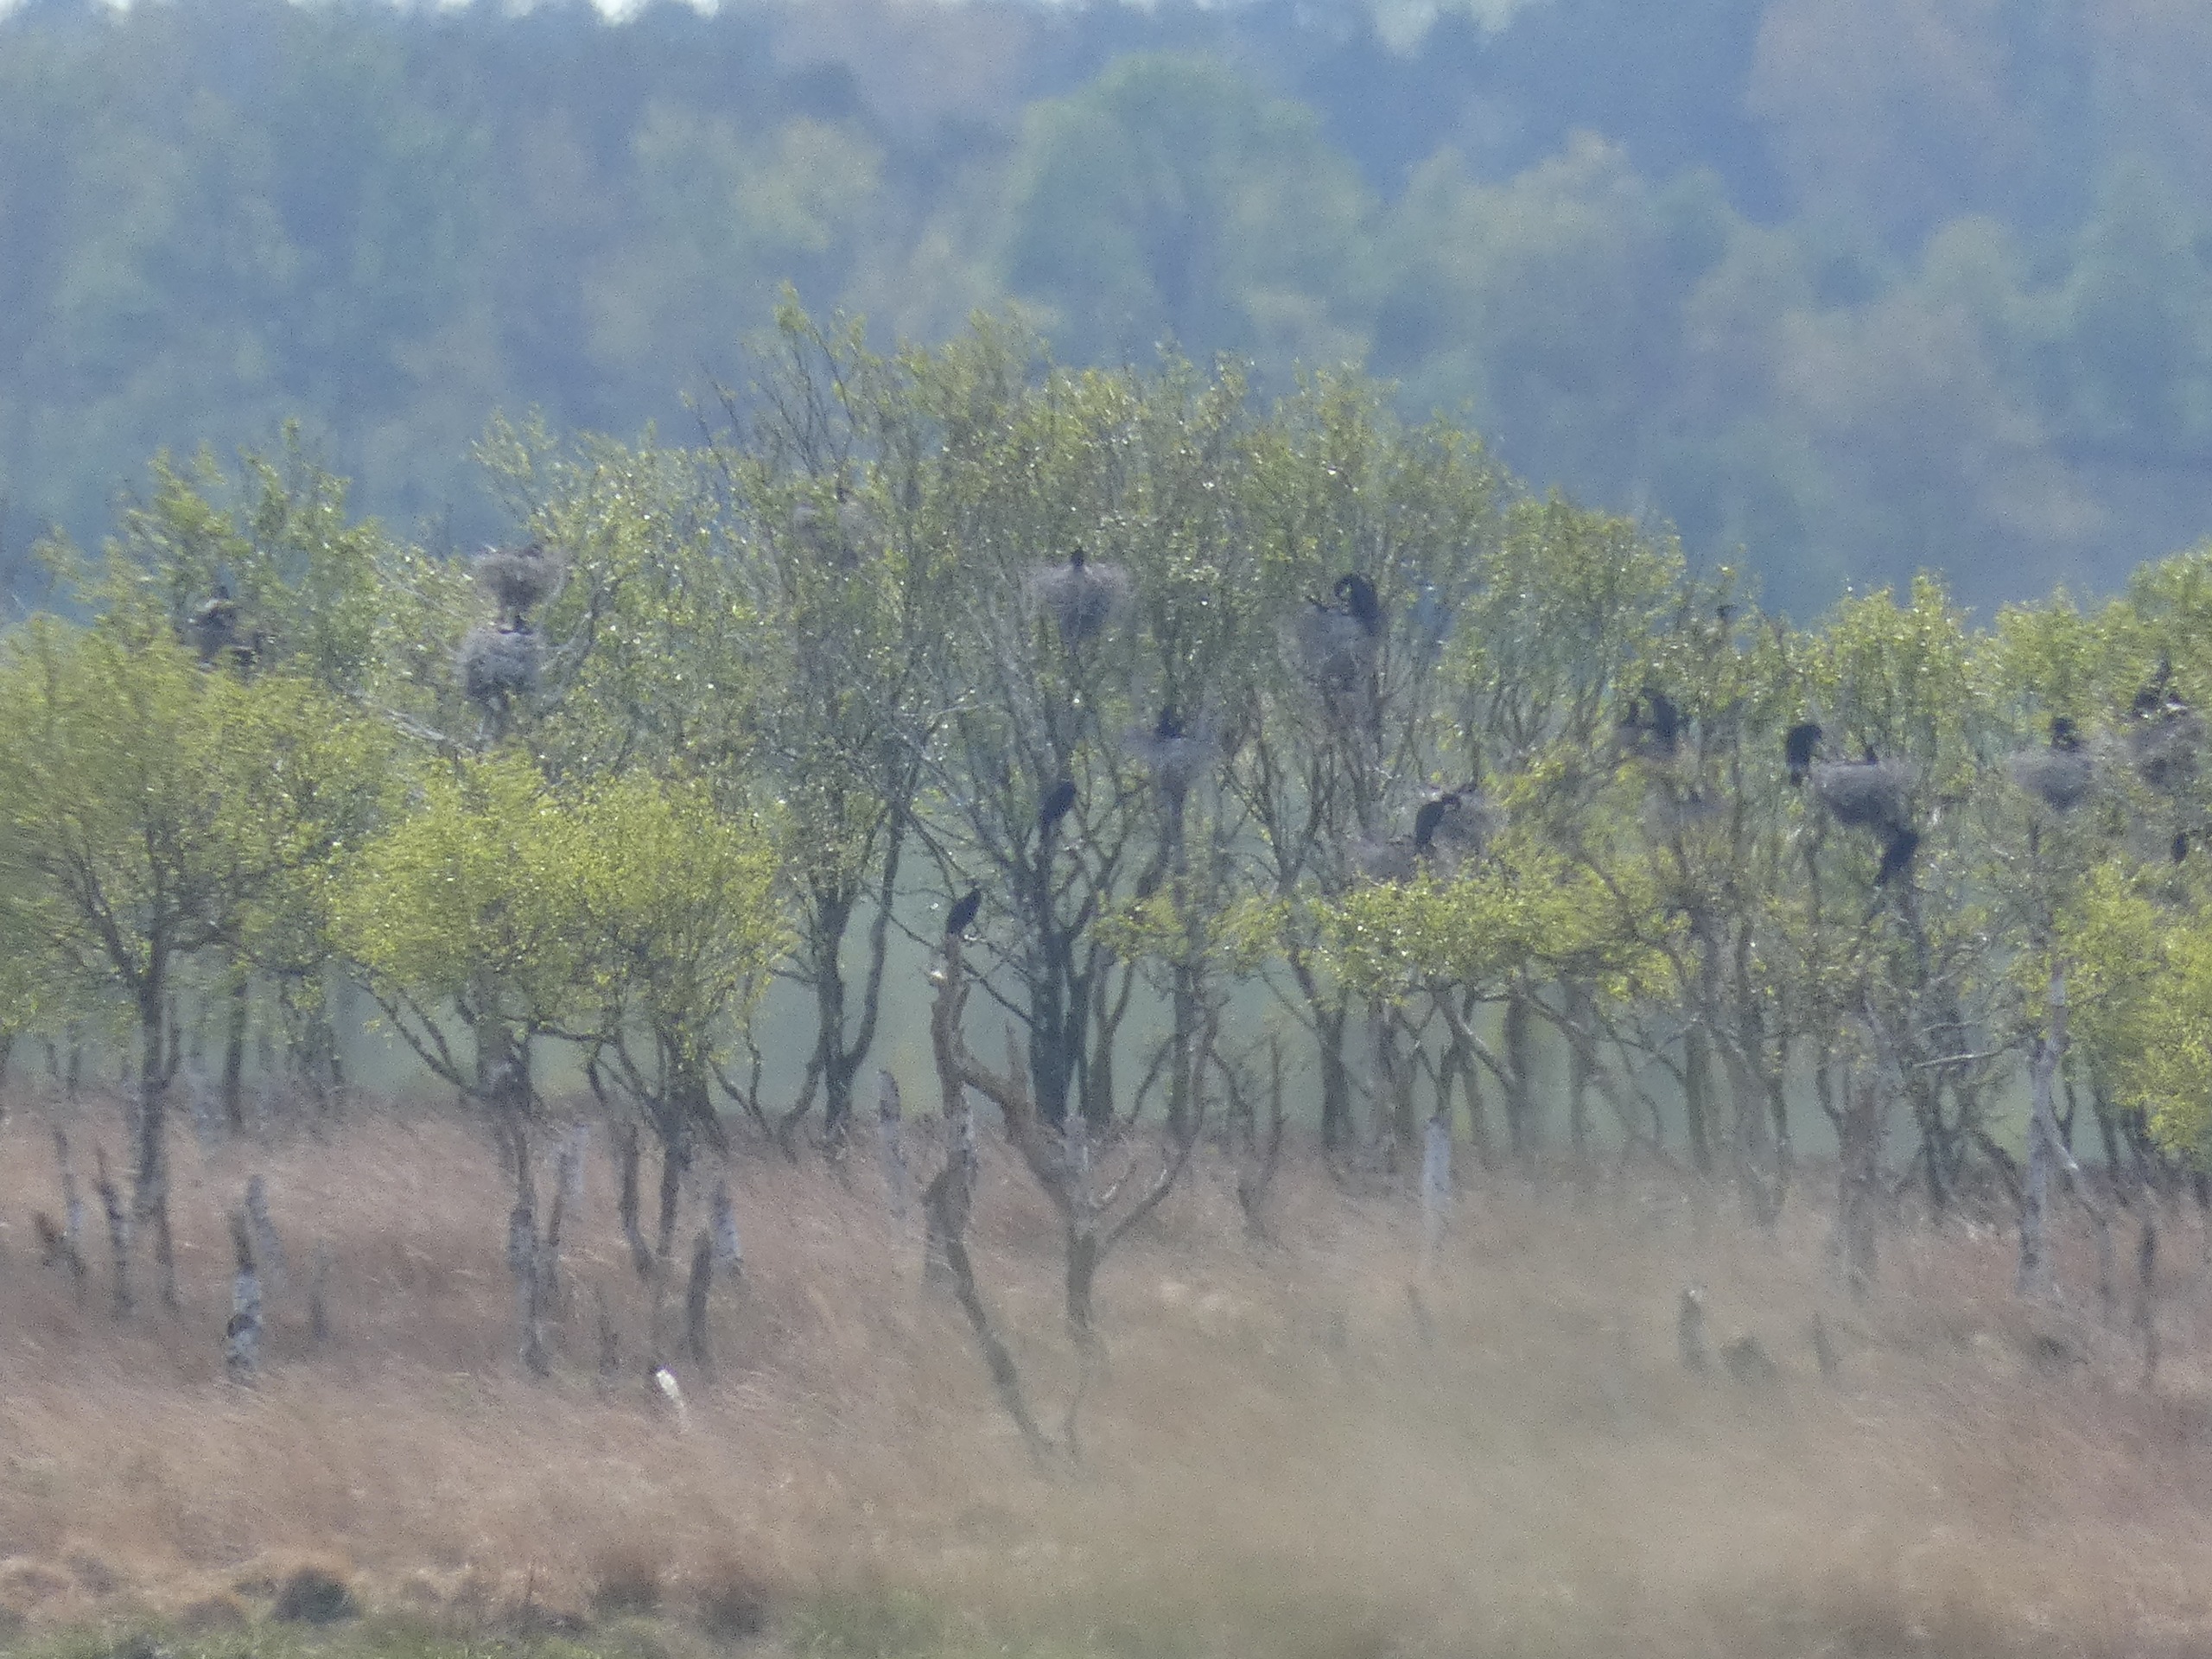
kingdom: Animalia
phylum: Chordata
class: Aves
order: Suliformes
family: Phalacrocoracidae
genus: Phalacrocorax
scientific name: Phalacrocorax carbo
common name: Skarv
